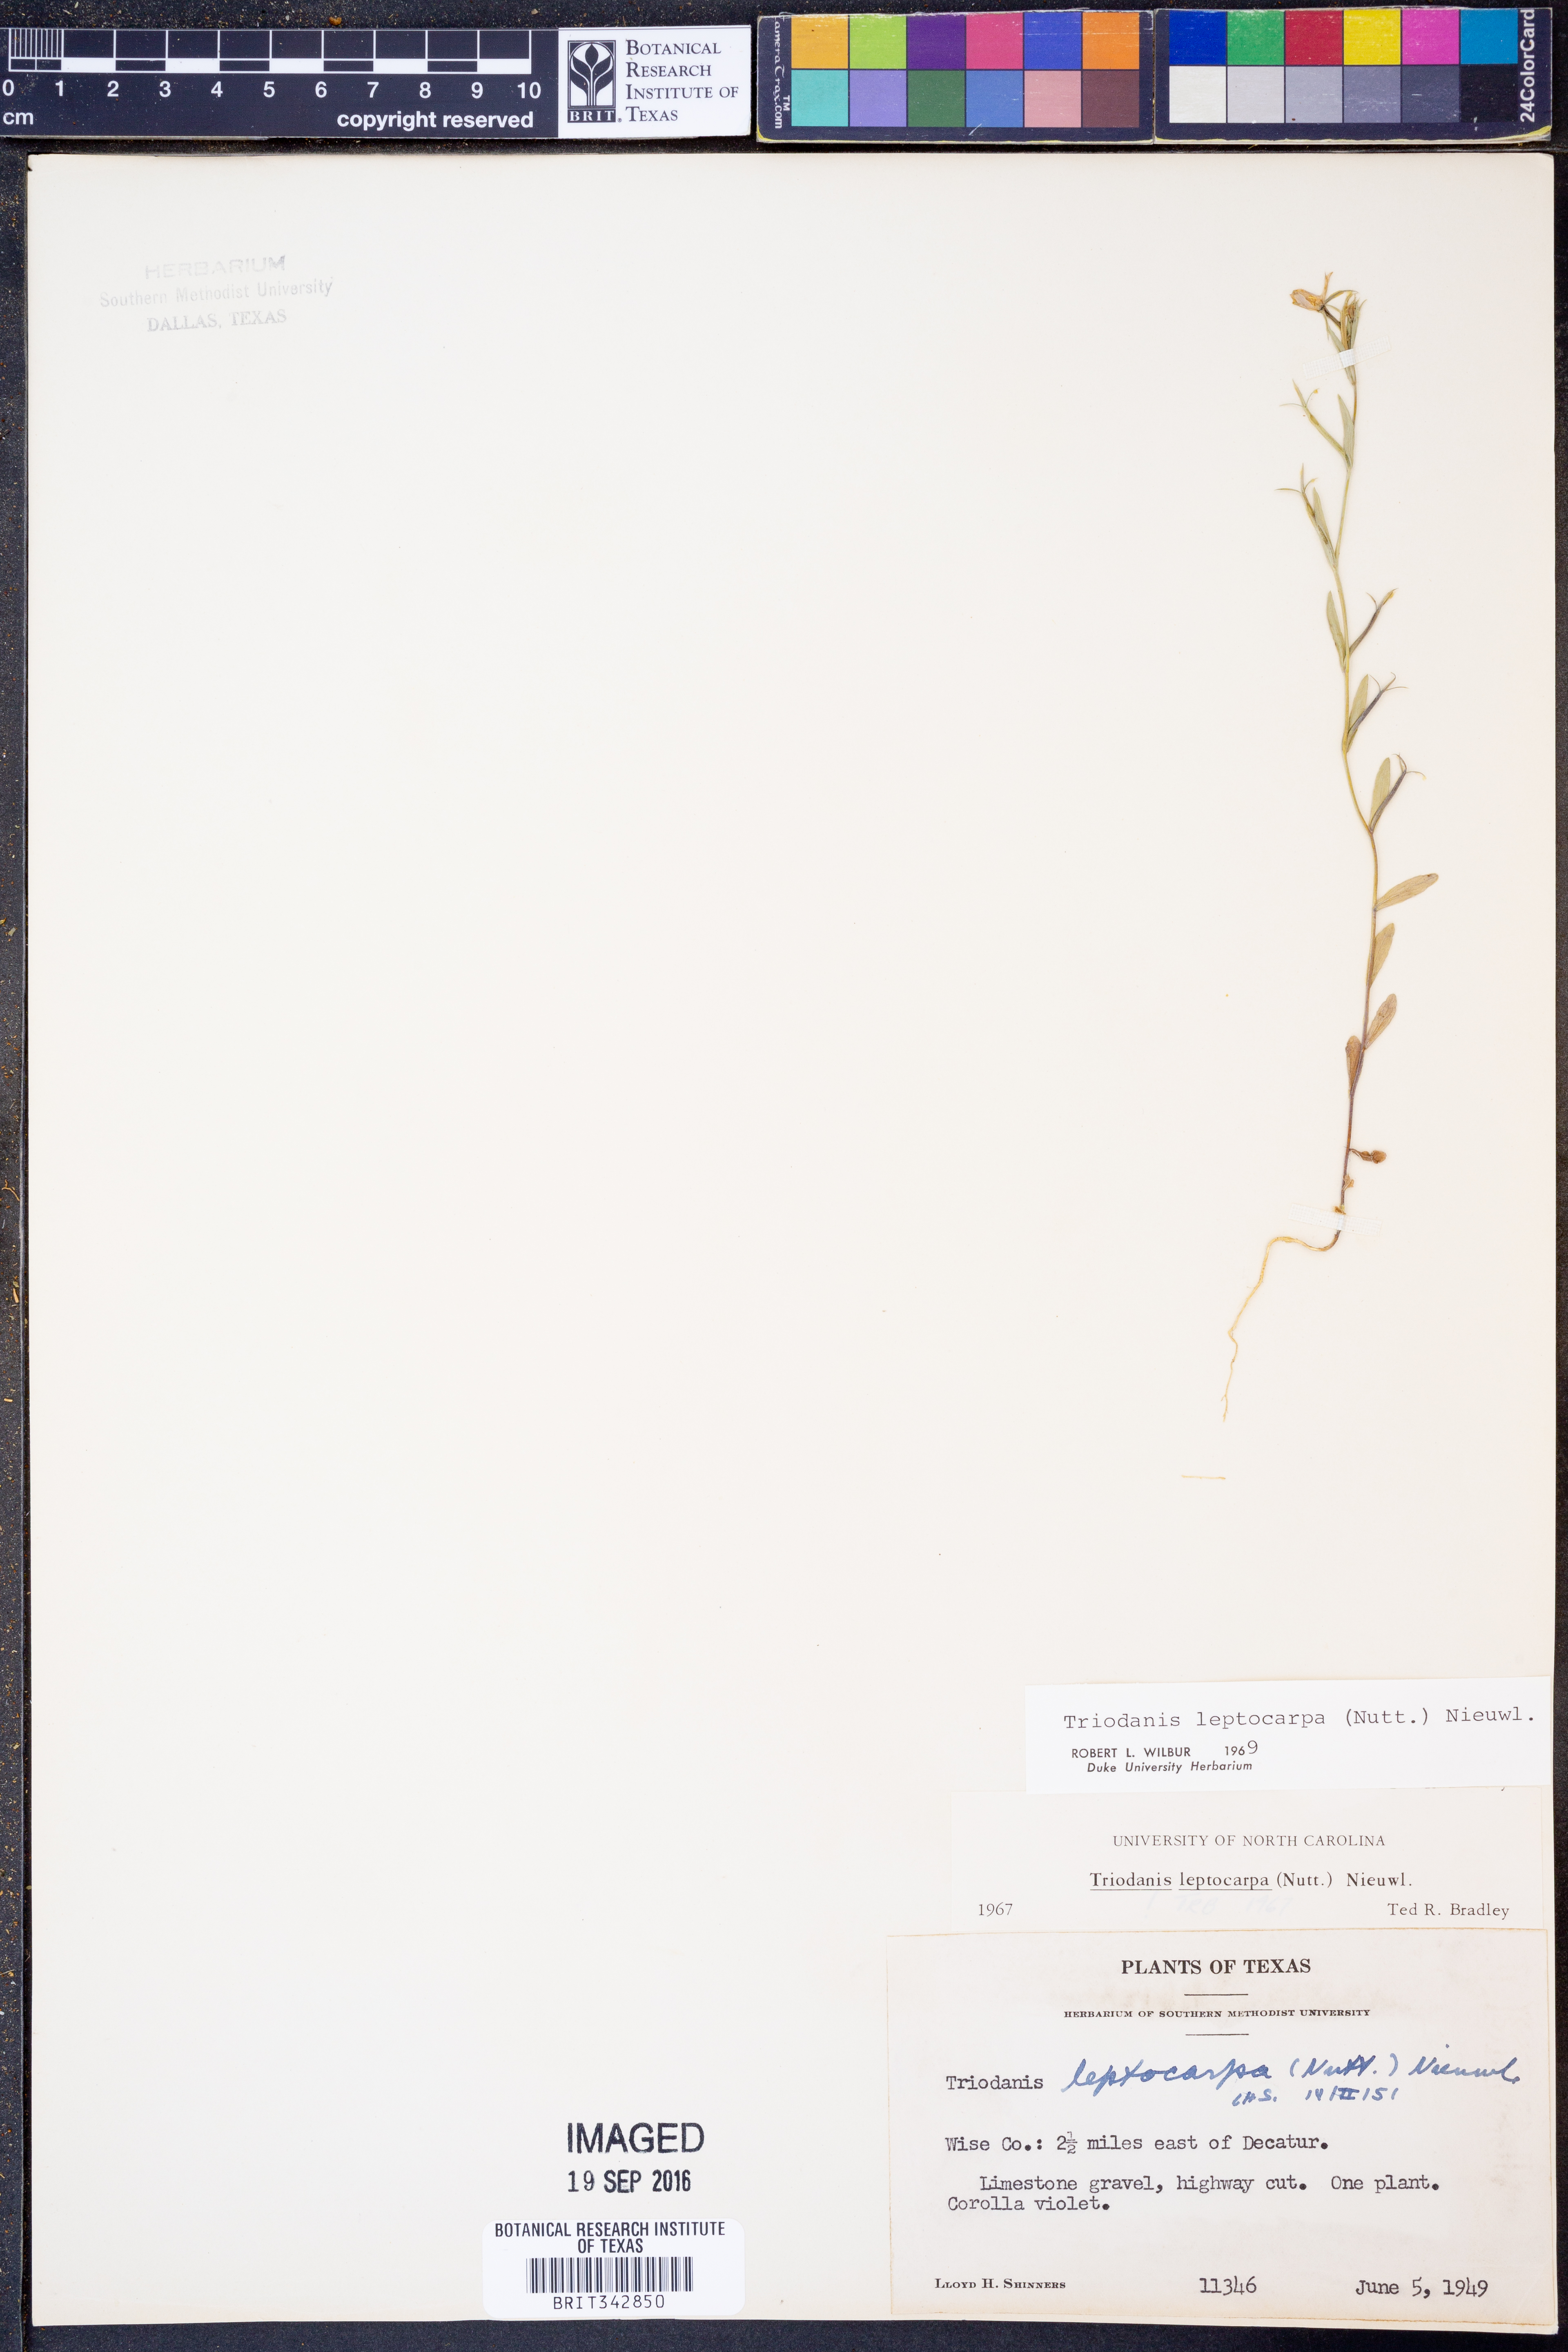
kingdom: Plantae
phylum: Tracheophyta
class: Magnoliopsida
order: Asterales
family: Campanulaceae
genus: Triodanis
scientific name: Triodanis leptocarpa
